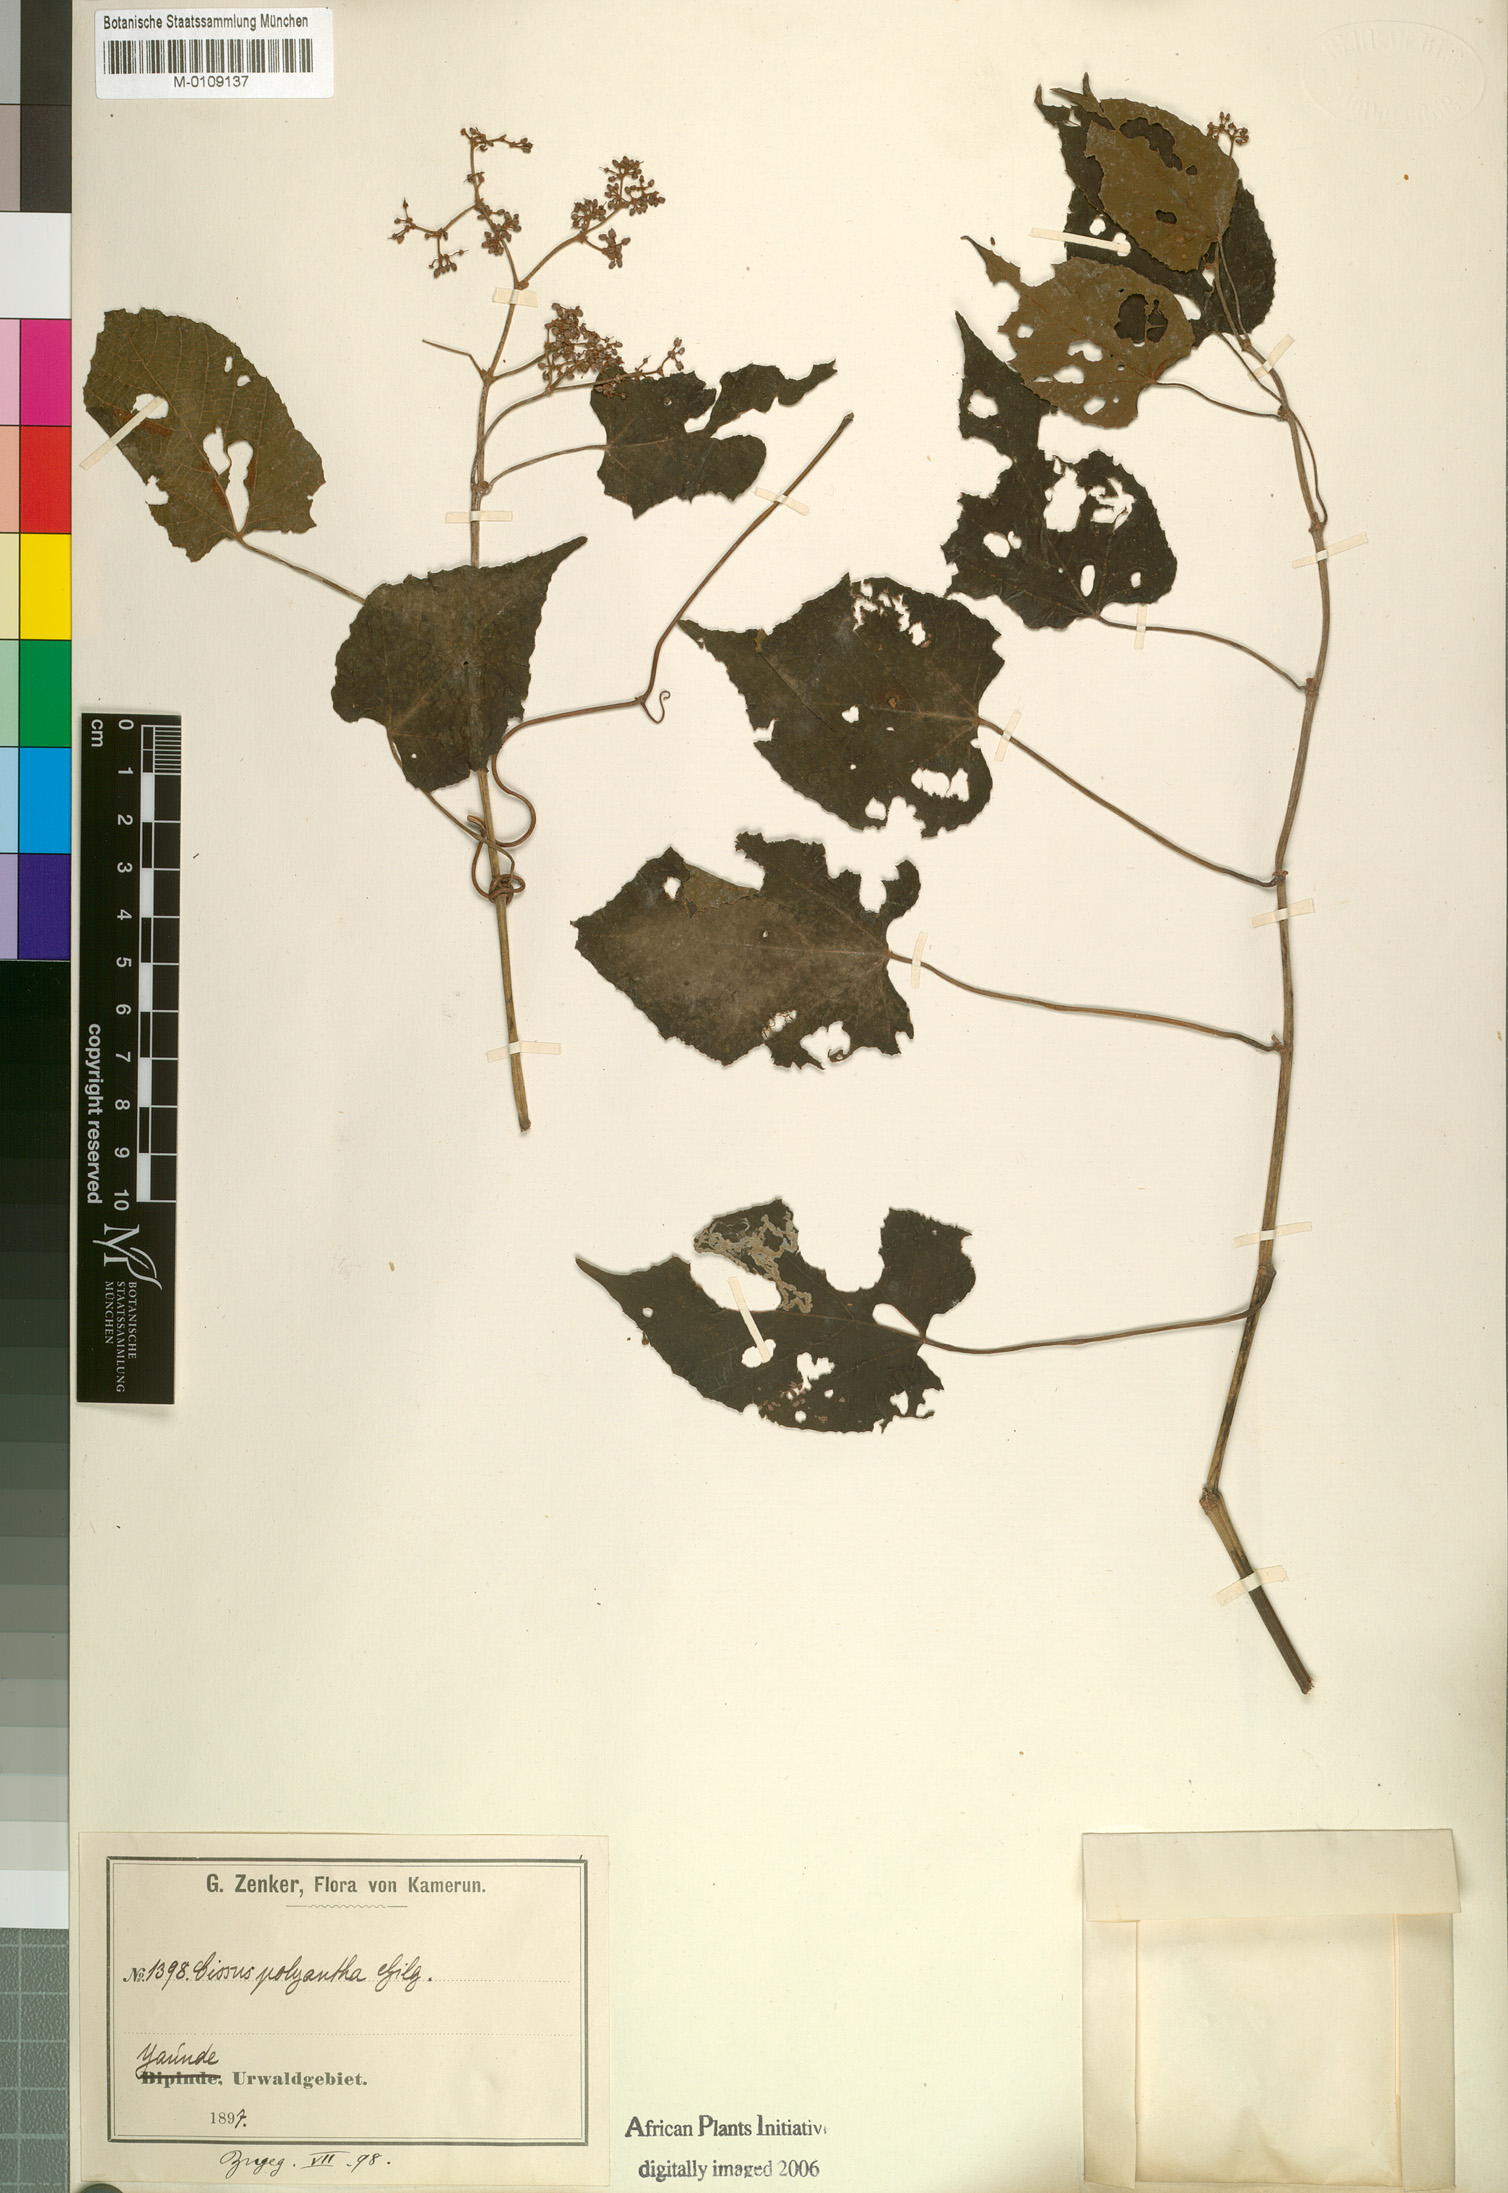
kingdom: Plantae
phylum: Tracheophyta
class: Magnoliopsida
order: Vitales
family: Vitaceae
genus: Cissus
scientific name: Cissus sue
